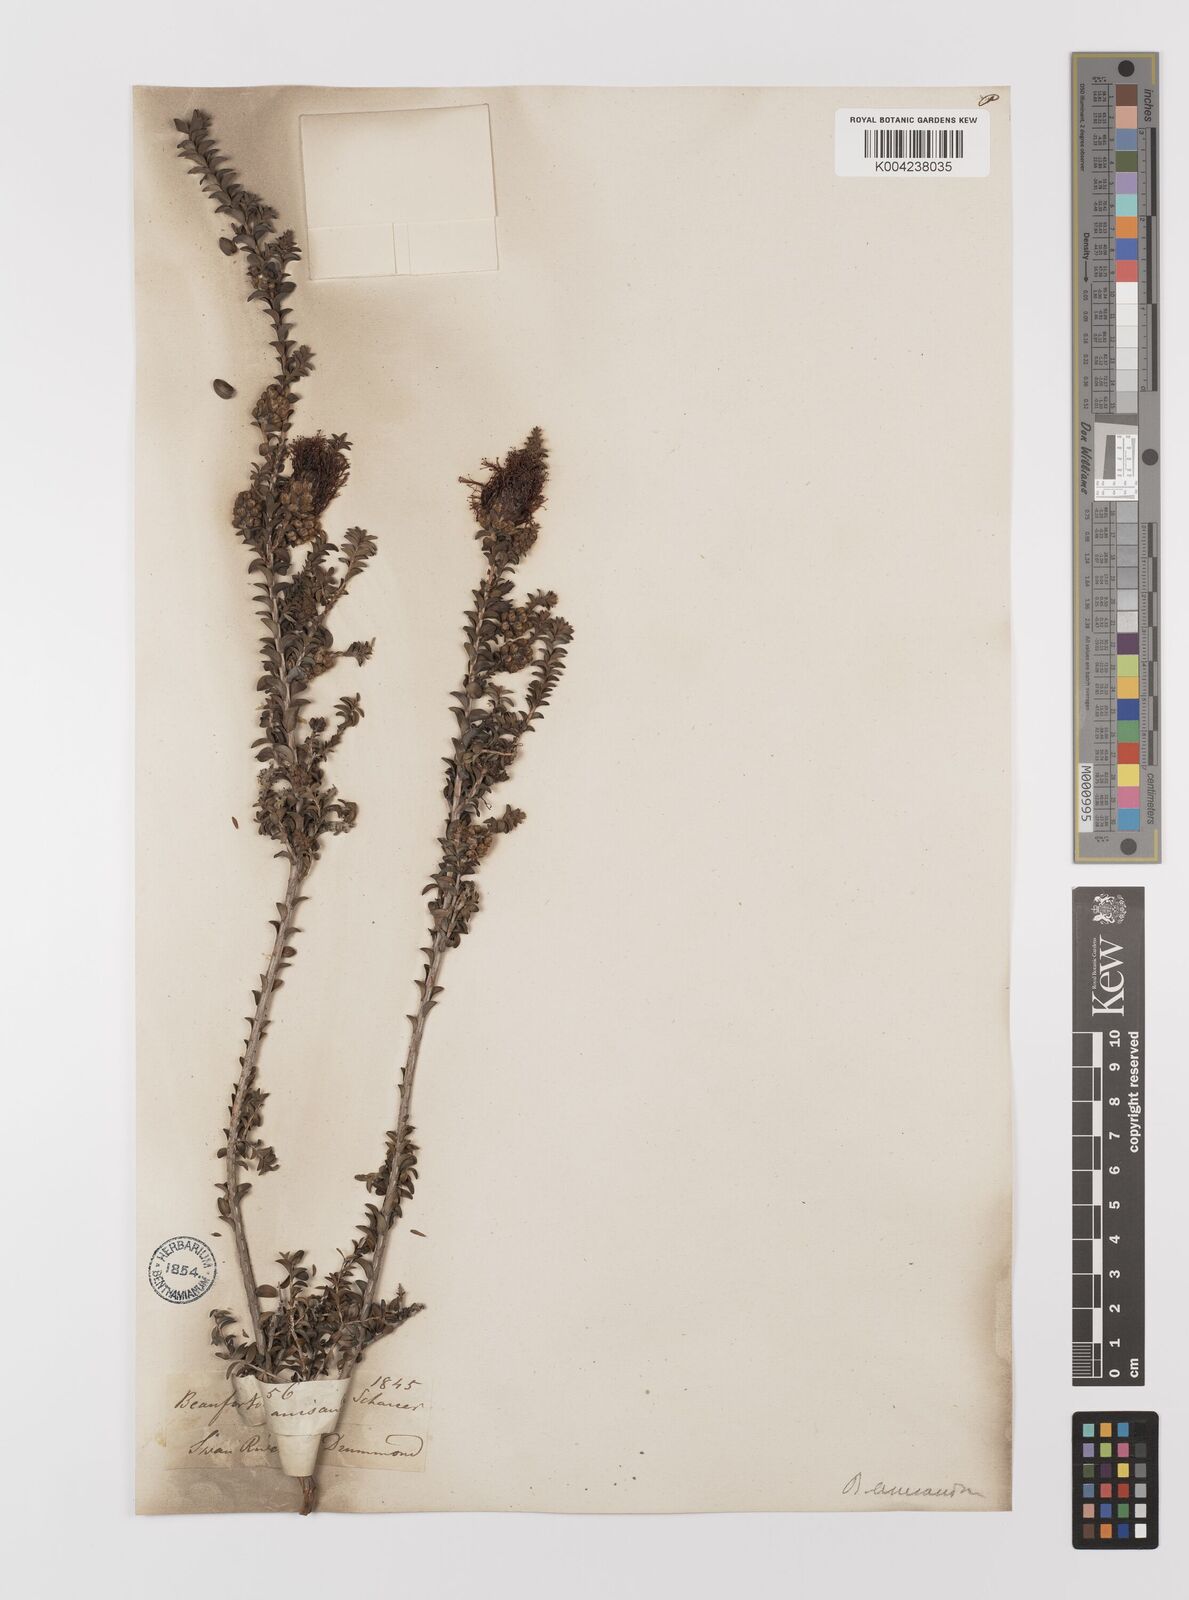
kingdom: Plantae
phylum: Tracheophyta
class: Magnoliopsida
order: Myrtales
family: Myrtaceae
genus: Melaleuca
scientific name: Melaleuca anisandra
